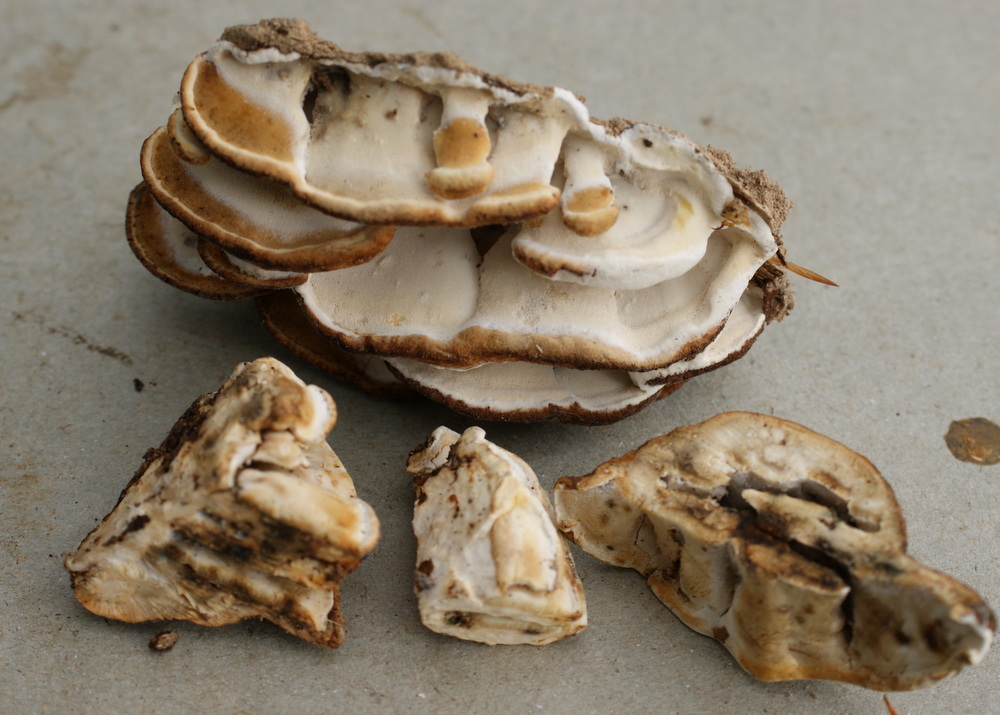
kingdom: Fungi
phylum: Basidiomycota
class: Agaricomycetes
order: Polyporales
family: Incrustoporiaceae
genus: Skeletocutis
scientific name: Skeletocutis nemoralis
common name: stor krystalporesvamp
